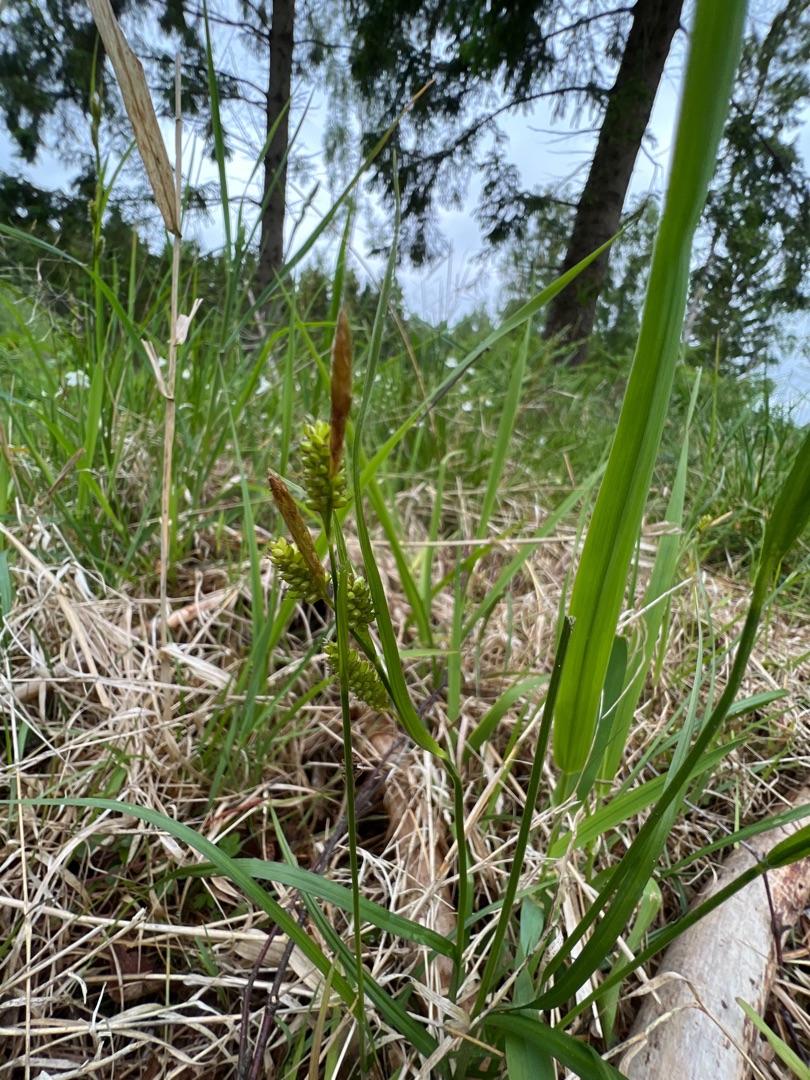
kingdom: Plantae
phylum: Tracheophyta
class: Liliopsida
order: Poales
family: Cyperaceae
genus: Carex
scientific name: Carex pallescens
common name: Bleg star
